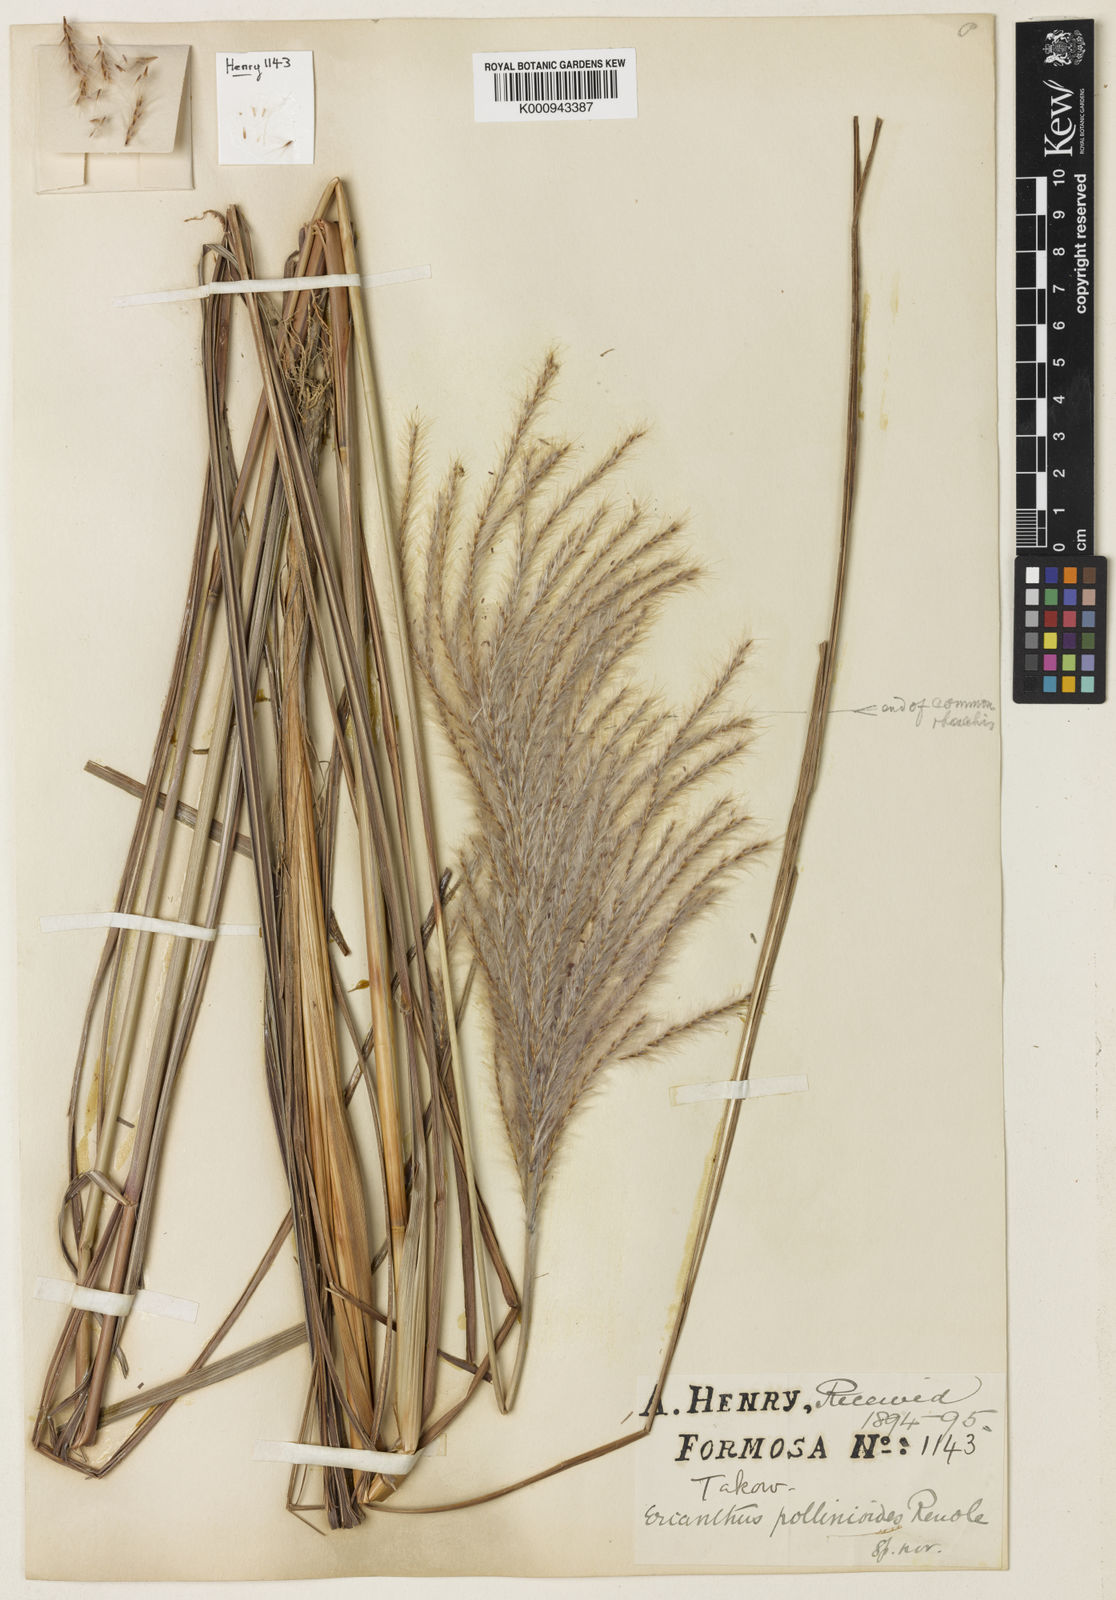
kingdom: Plantae
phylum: Tracheophyta
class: Liliopsida
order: Poales
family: Poaceae
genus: Saccharum
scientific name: Saccharum formosanum
